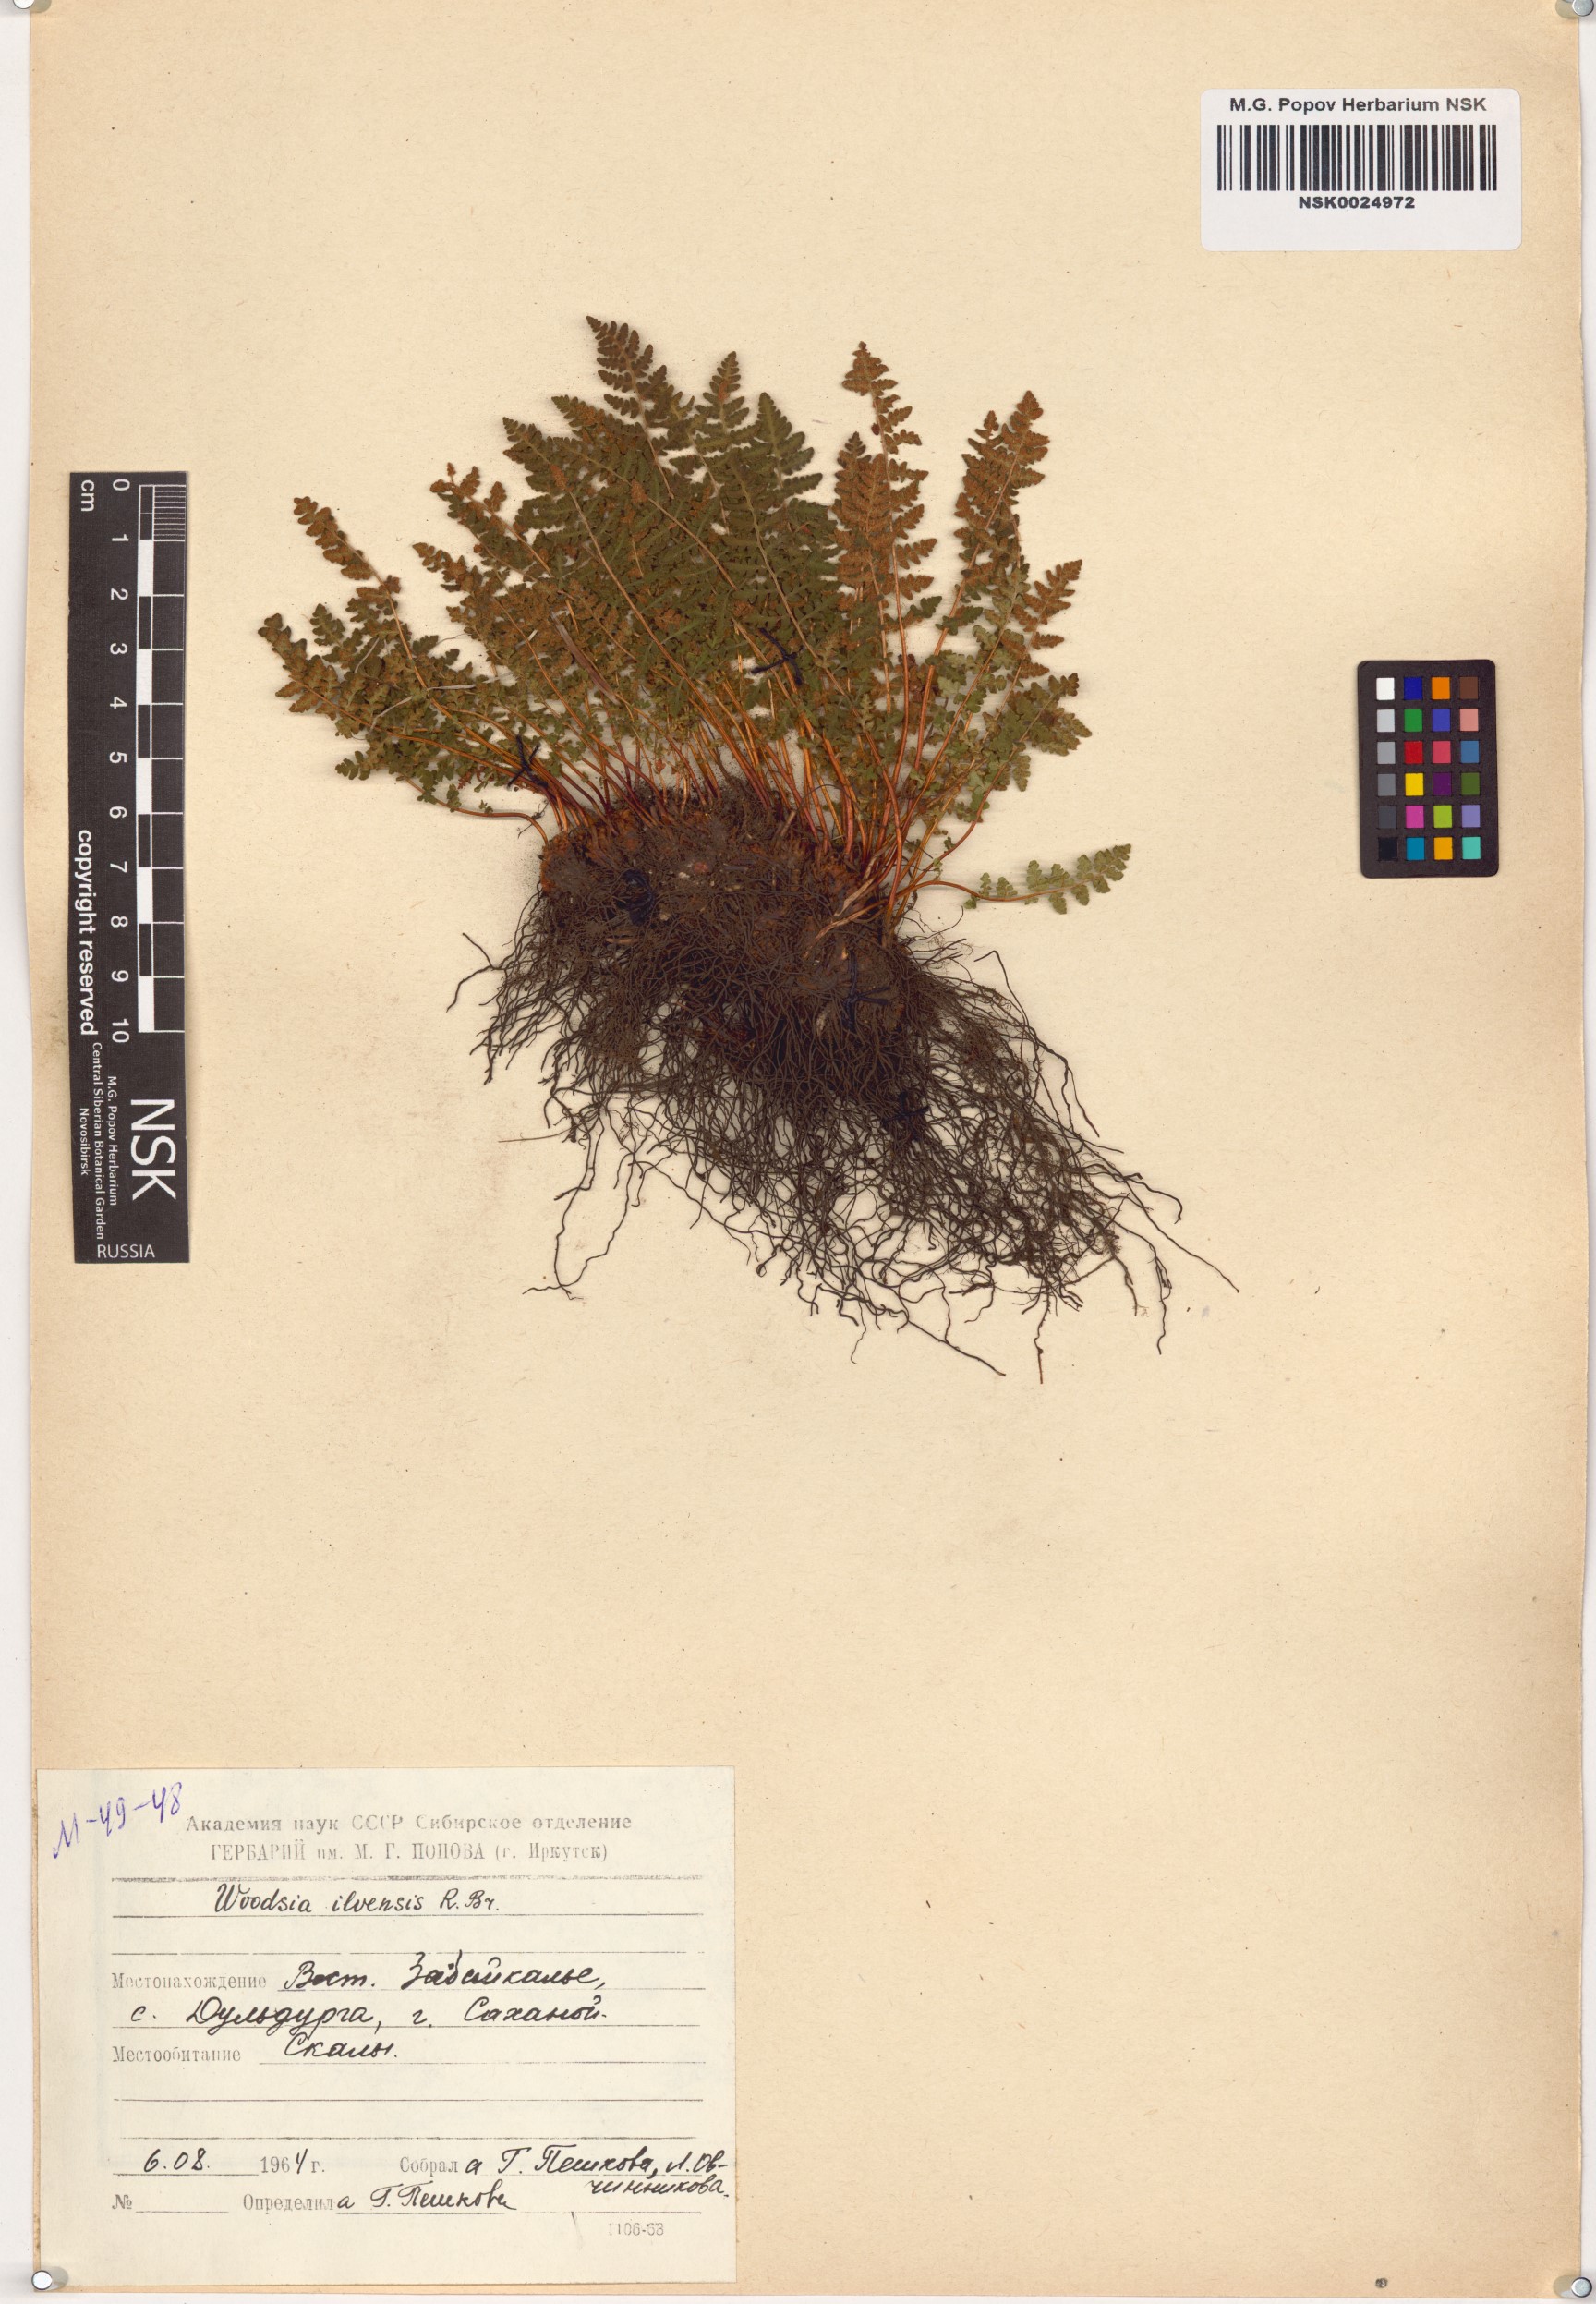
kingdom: Plantae
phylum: Tracheophyta
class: Polypodiopsida
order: Polypodiales
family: Woodsiaceae
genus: Woodsia
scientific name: Woodsia ilvensis
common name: Fragrant woodsia
